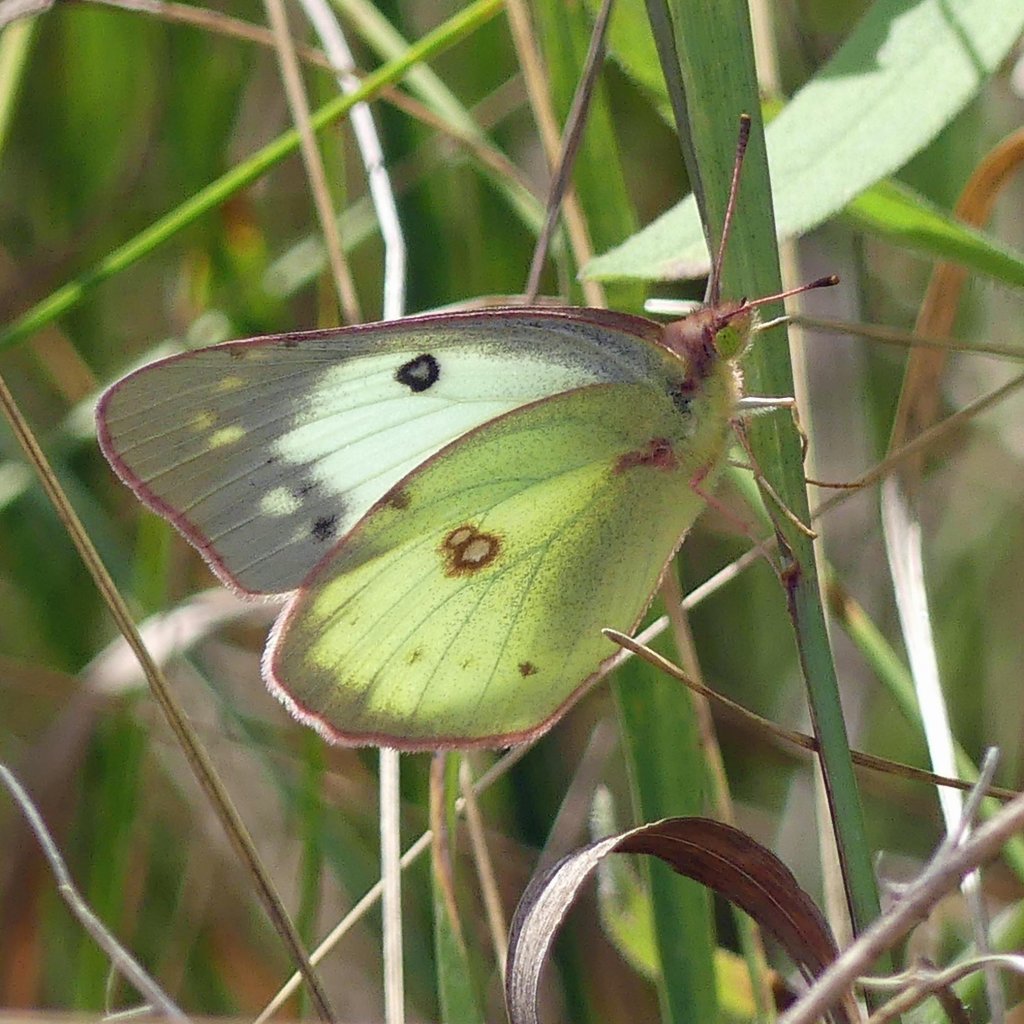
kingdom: Animalia
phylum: Arthropoda
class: Insecta
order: Lepidoptera
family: Pieridae
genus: Colias
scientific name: Colias philodice
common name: Clouded Sulphur
